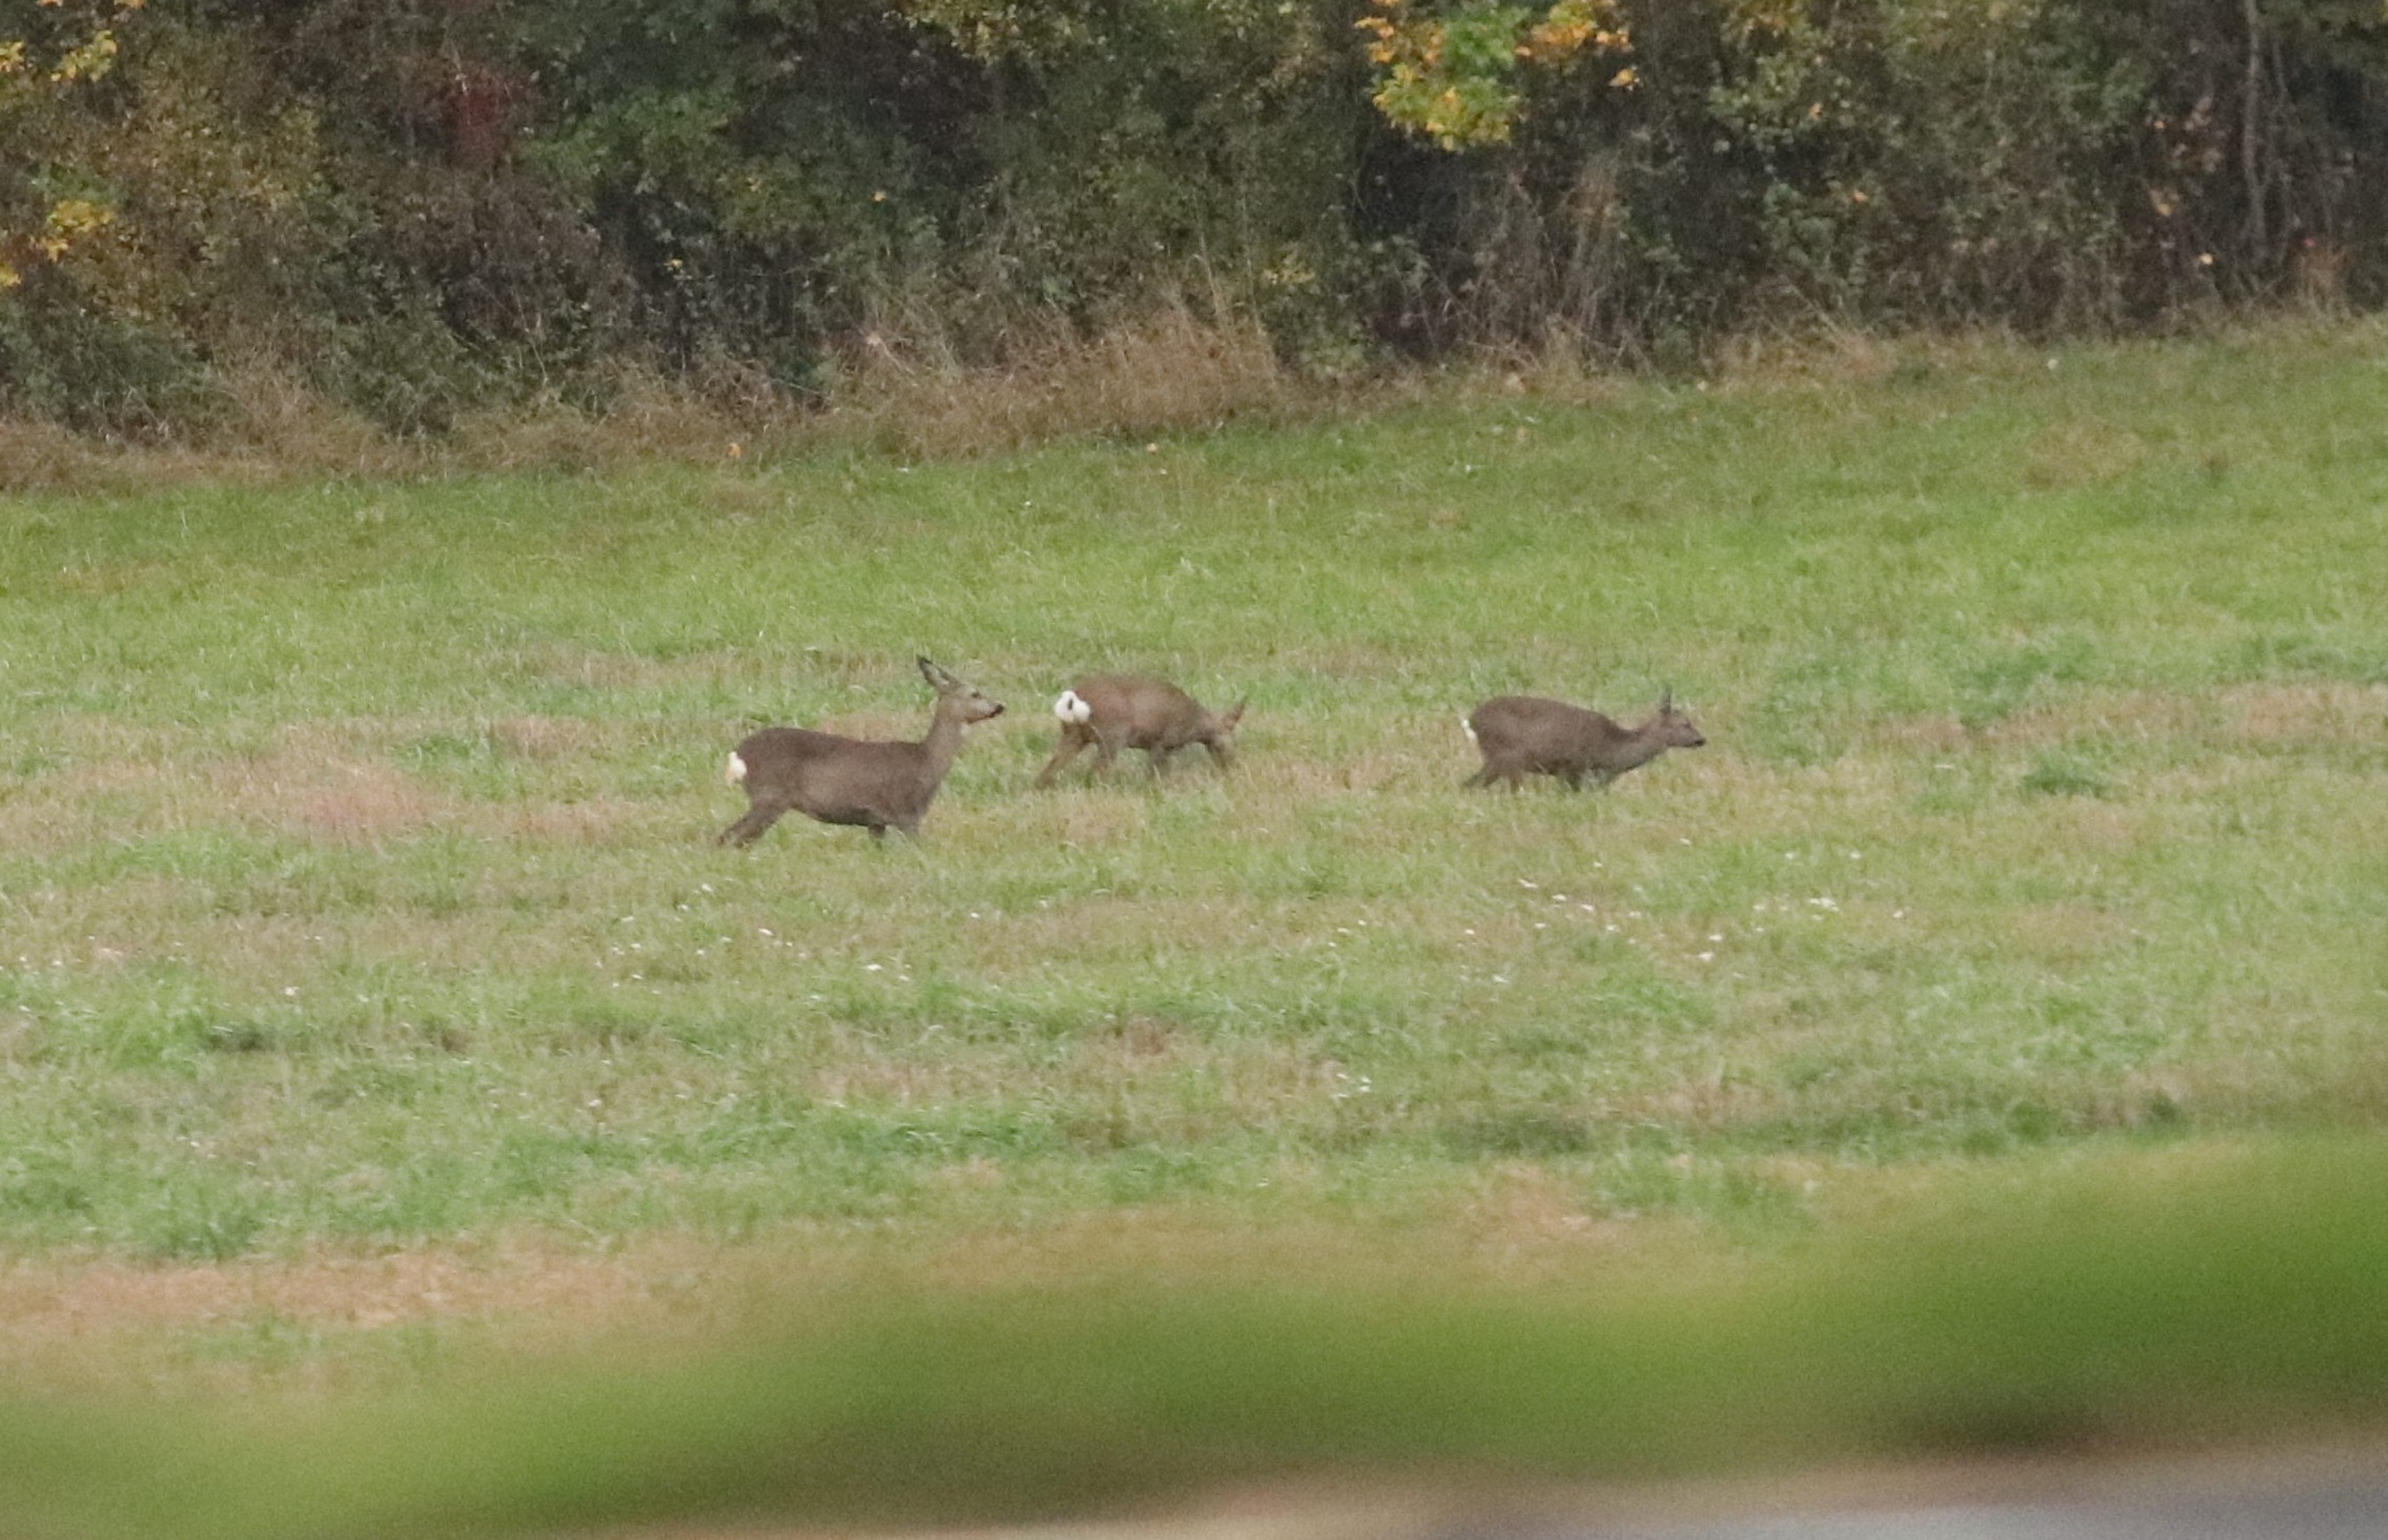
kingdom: Animalia
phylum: Chordata
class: Mammalia
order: Artiodactyla
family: Cervidae
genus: Capreolus
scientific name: Capreolus capreolus
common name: Rådyr
